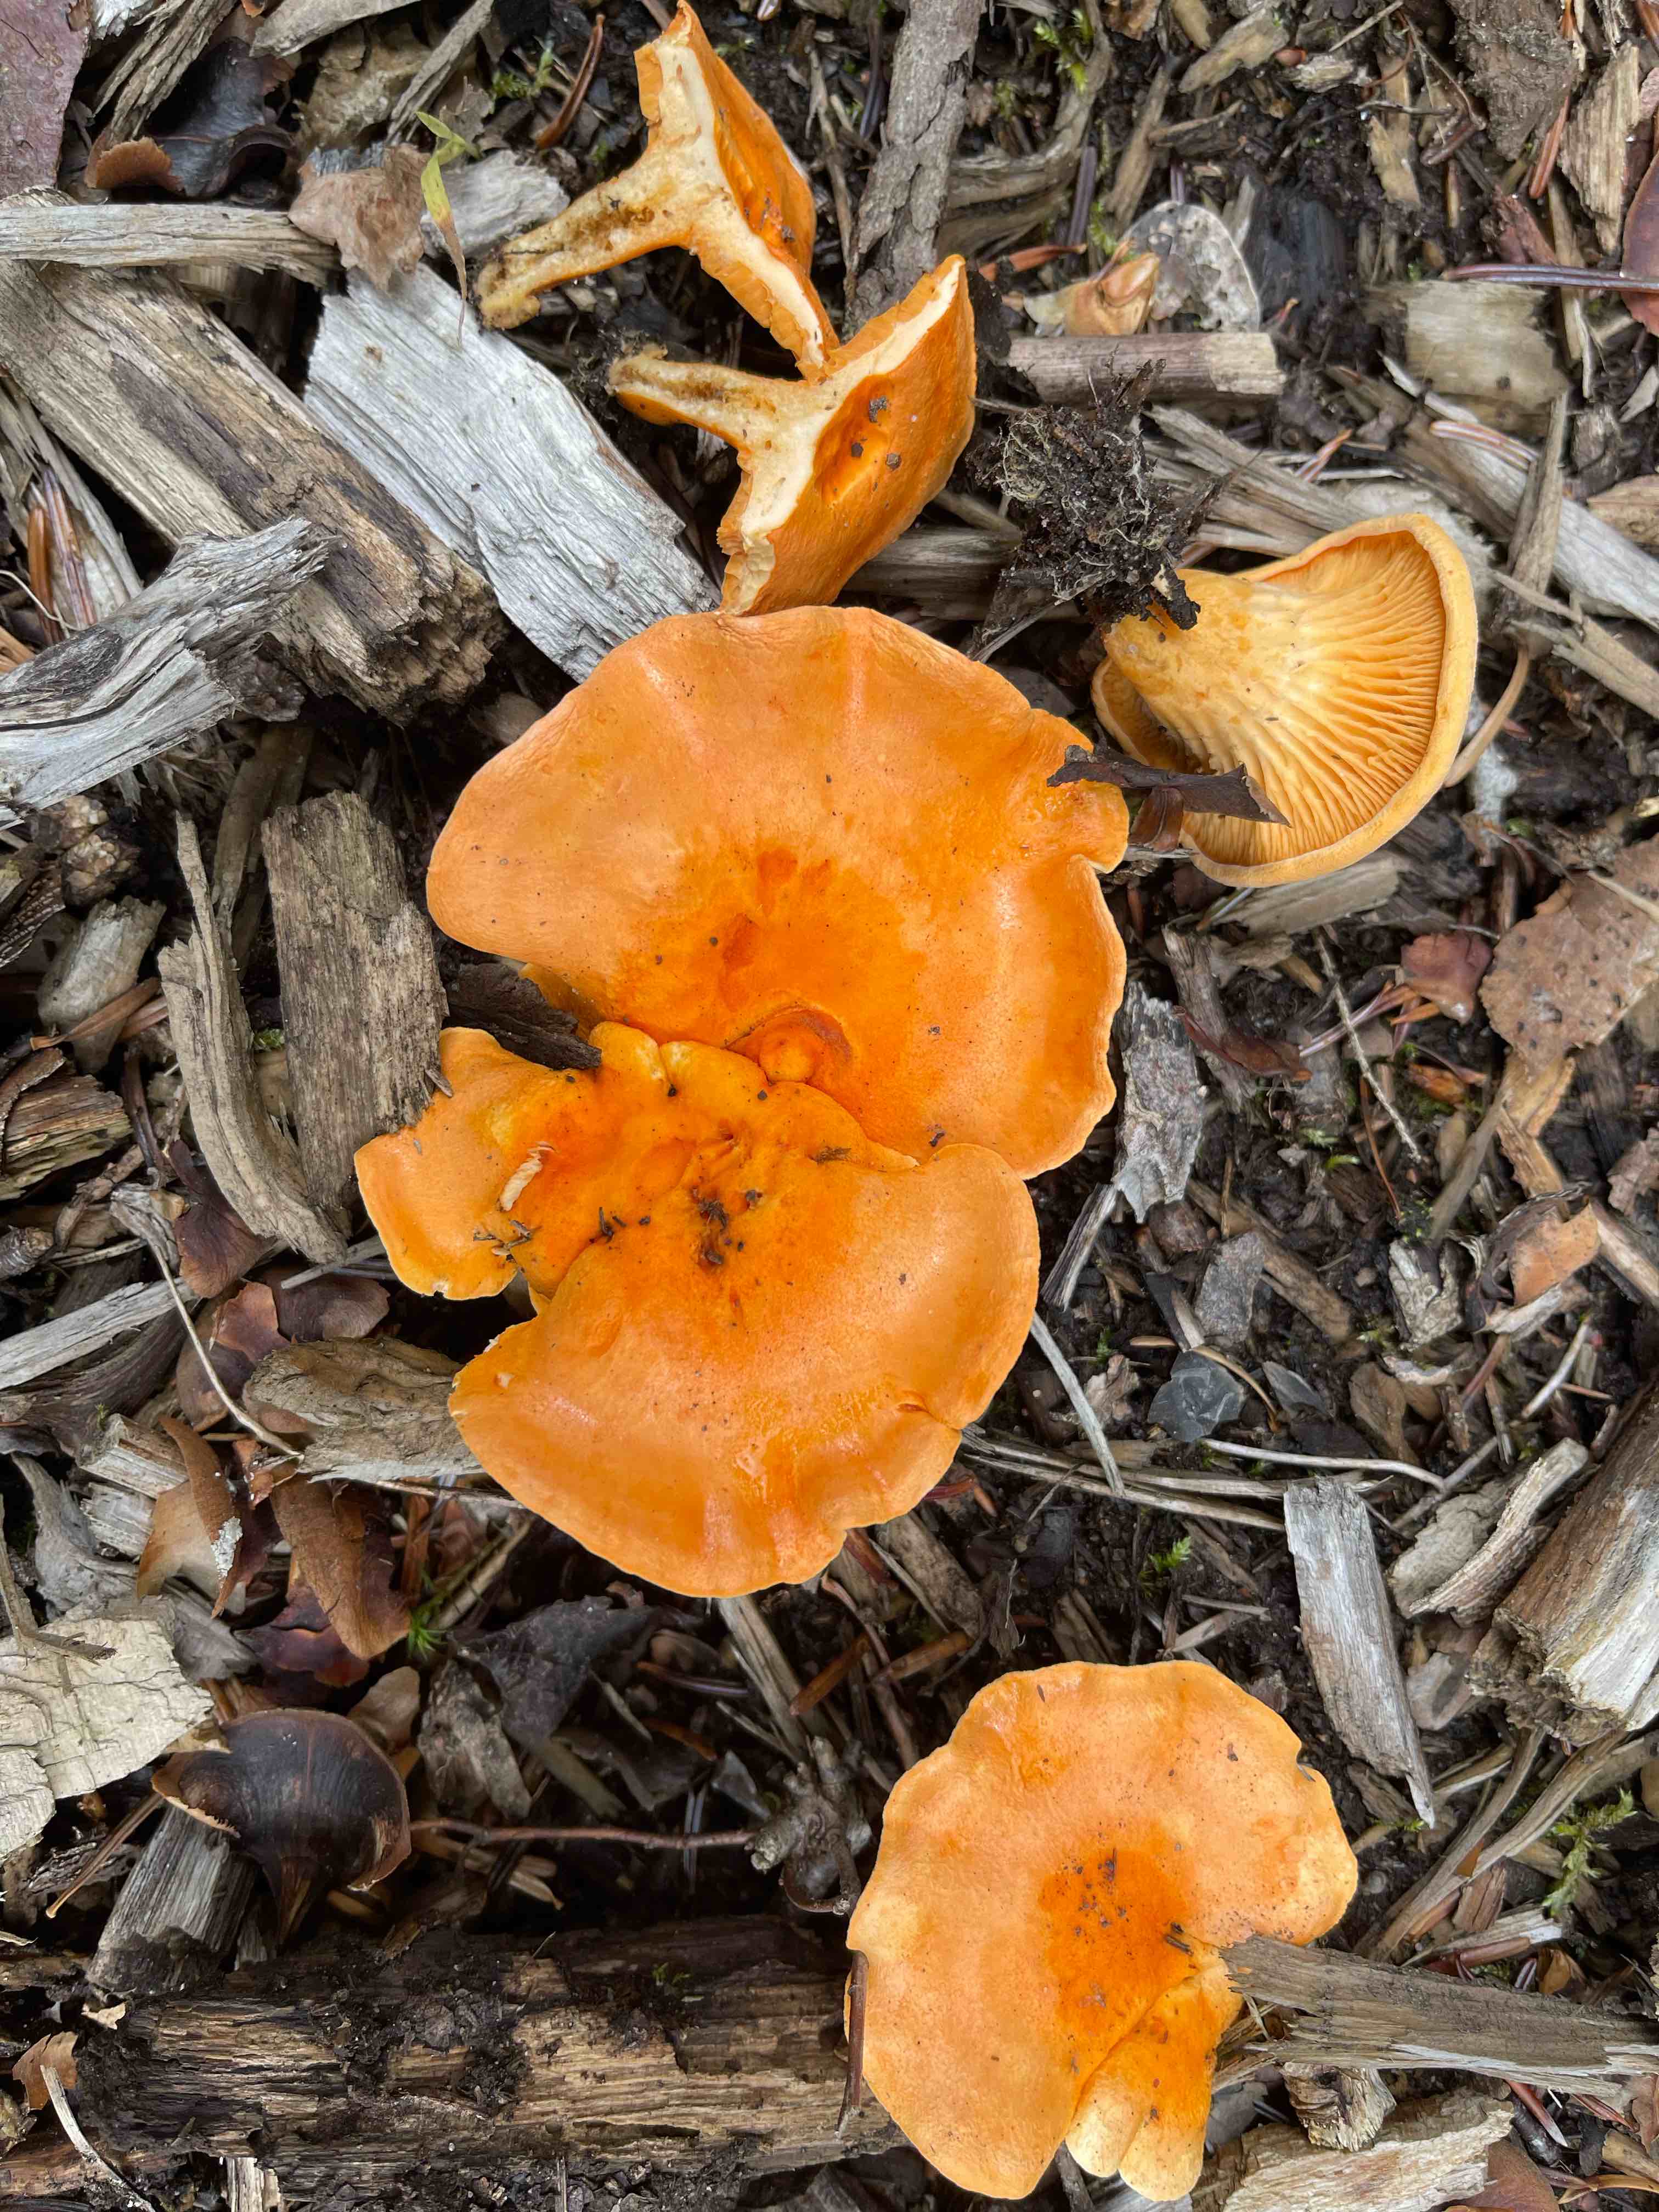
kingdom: Fungi
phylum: Basidiomycota
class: Agaricomycetes
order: Boletales
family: Hygrophoropsidaceae
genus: Hygrophoropsis
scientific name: Hygrophoropsis aurantiaca
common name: almindelig orangekantarel
